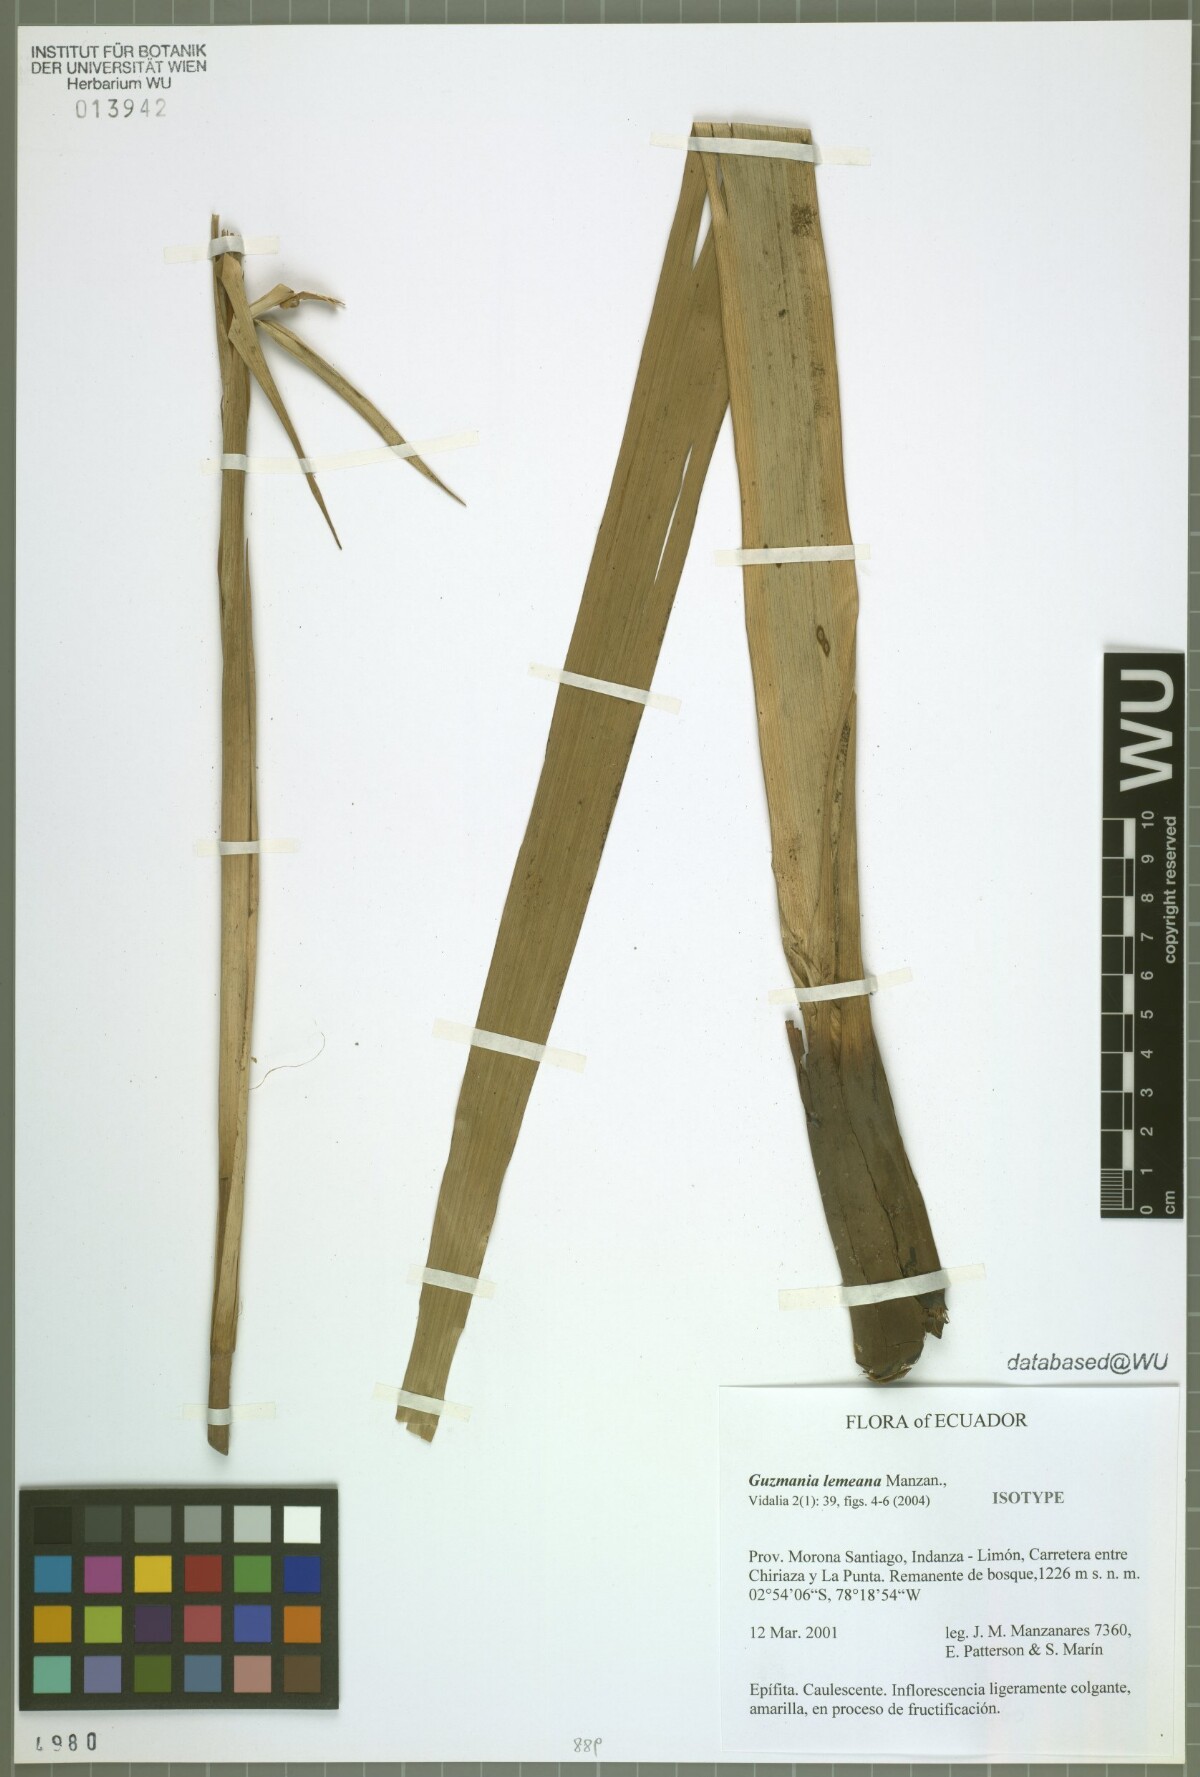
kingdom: Plantae
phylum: Tracheophyta
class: Liliopsida
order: Poales
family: Bromeliaceae
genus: Guzmania
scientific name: Guzmania lemeana
